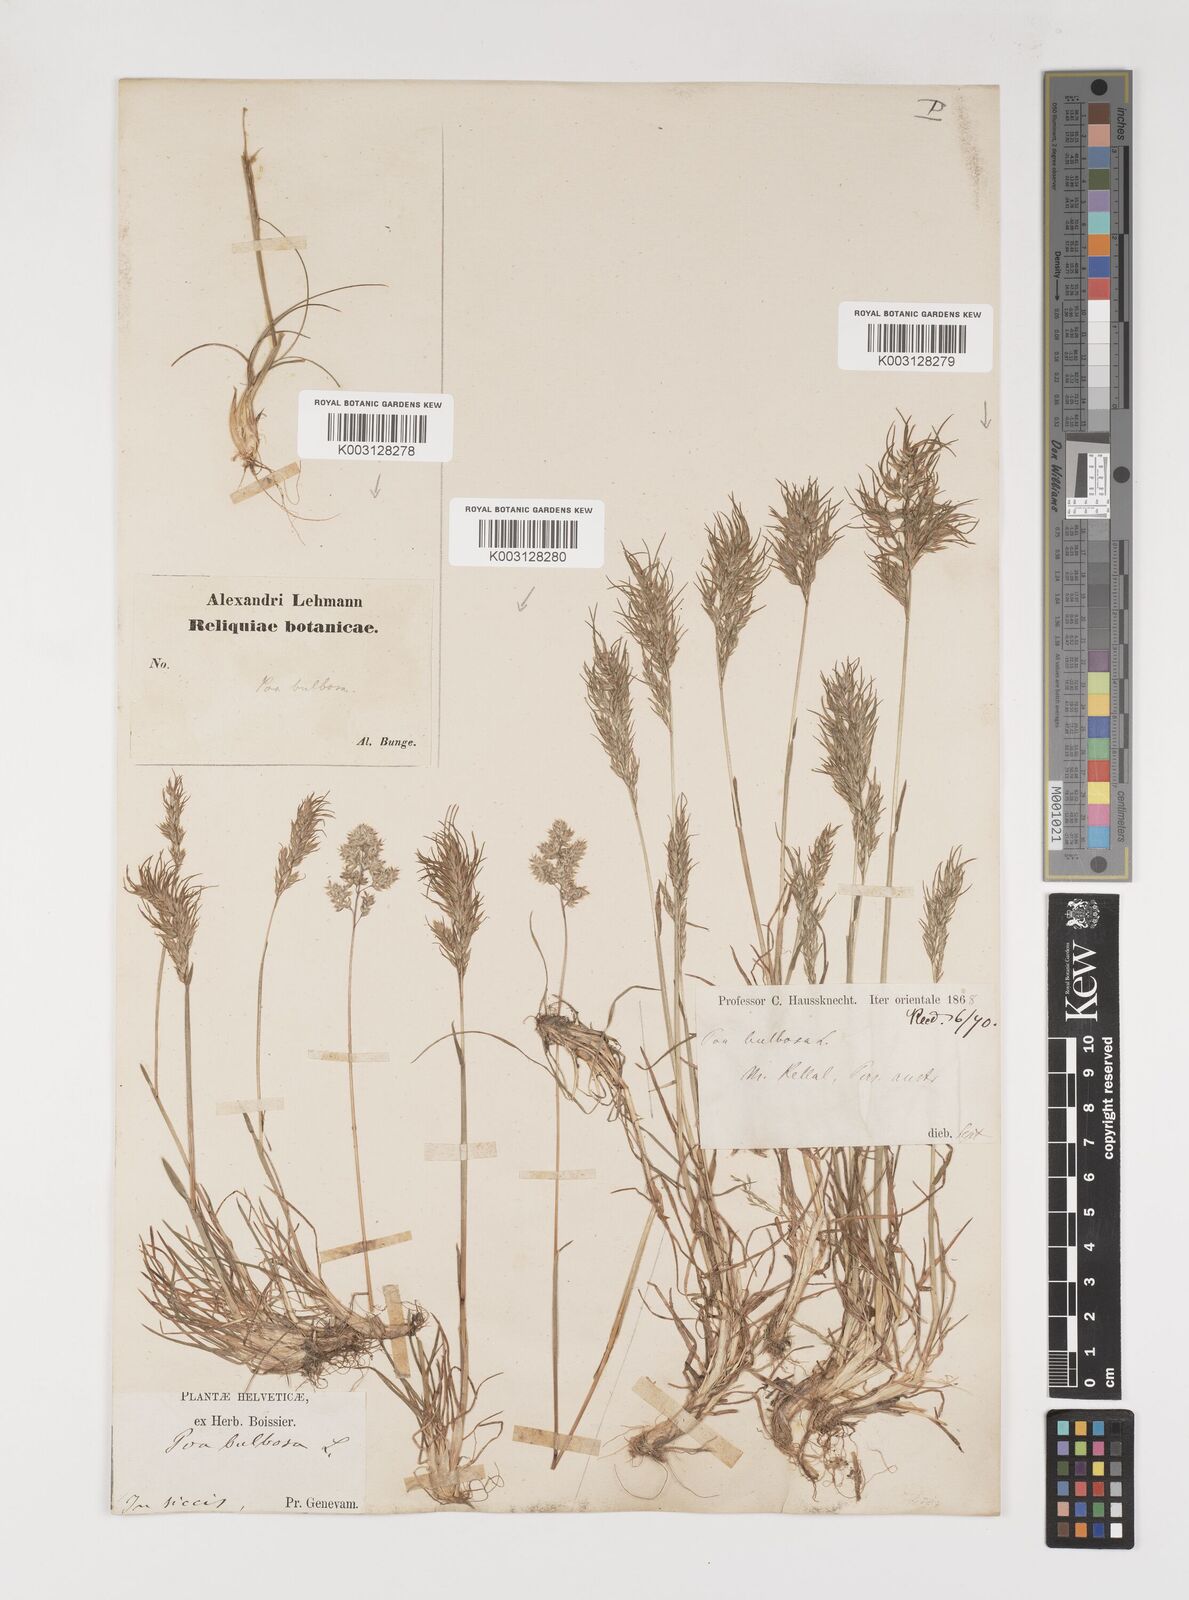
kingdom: Plantae
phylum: Tracheophyta
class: Liliopsida
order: Poales
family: Poaceae
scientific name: Poaceae
